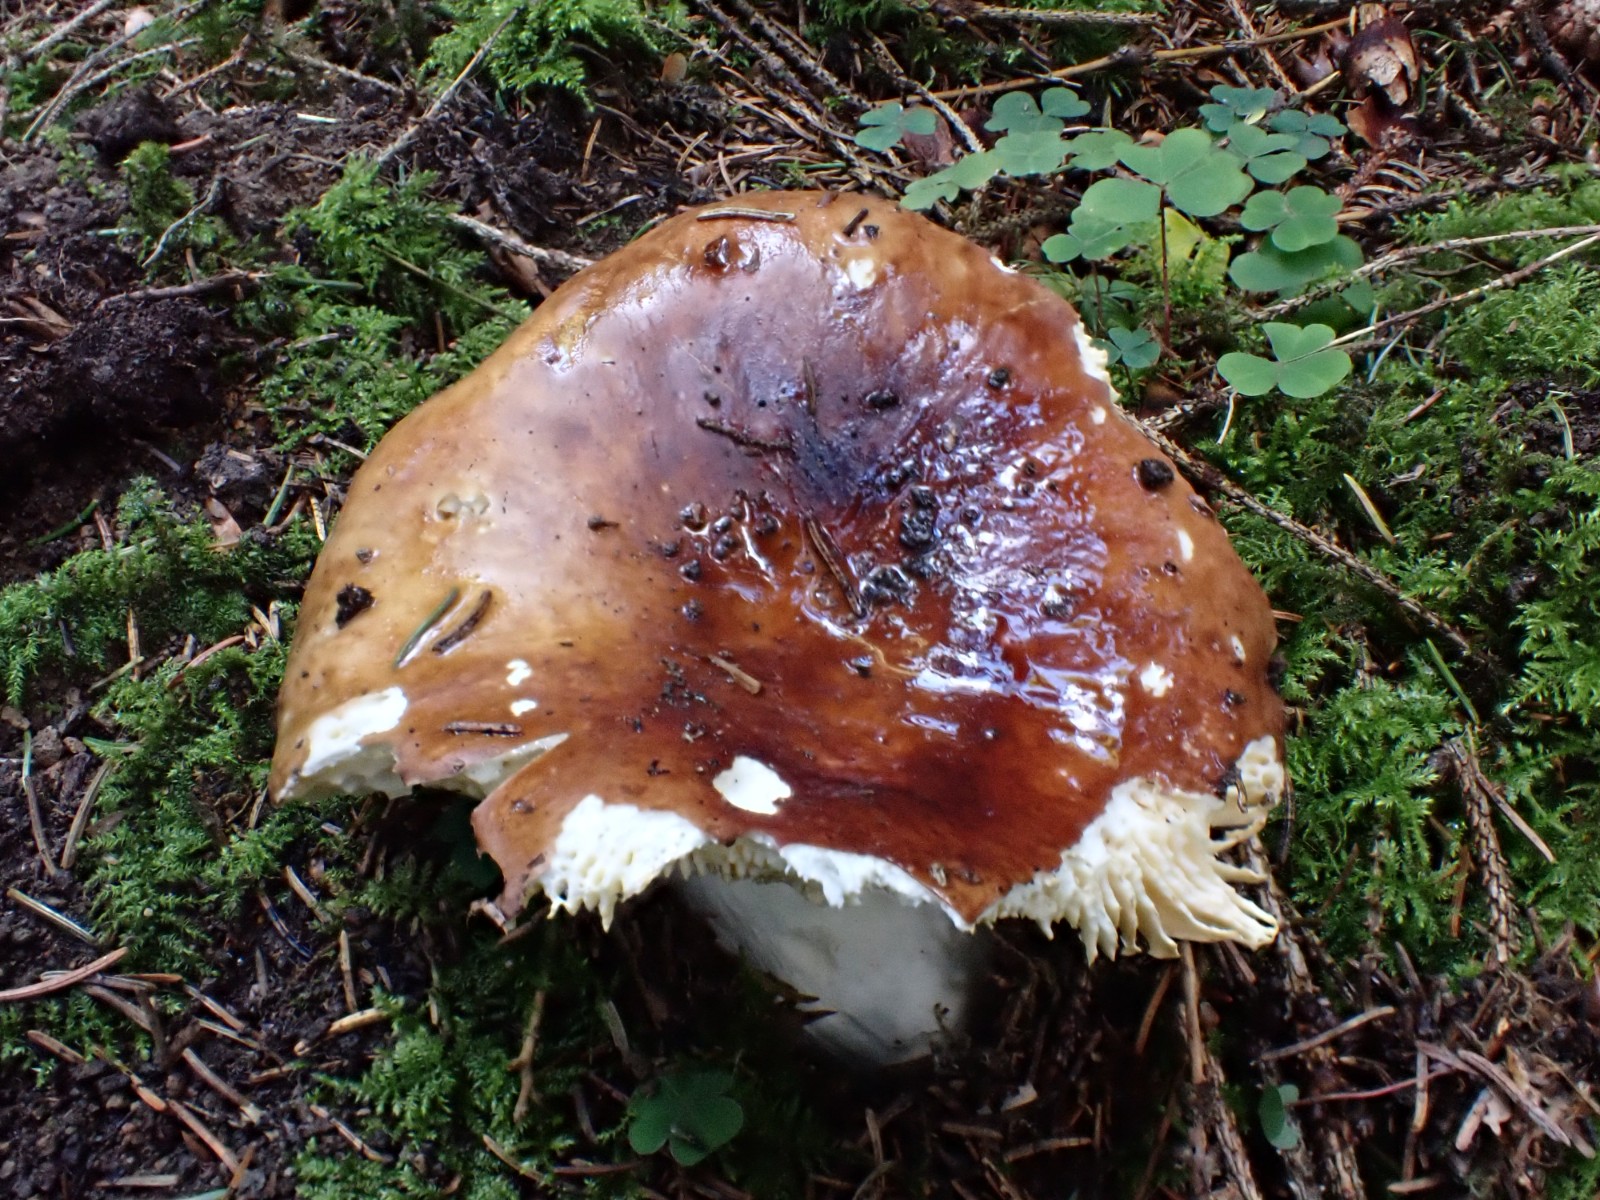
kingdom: Fungi
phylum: Basidiomycota
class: Agaricomycetes
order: Russulales
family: Russulaceae
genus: Russula
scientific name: Russula integra
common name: mandel-skørhat
